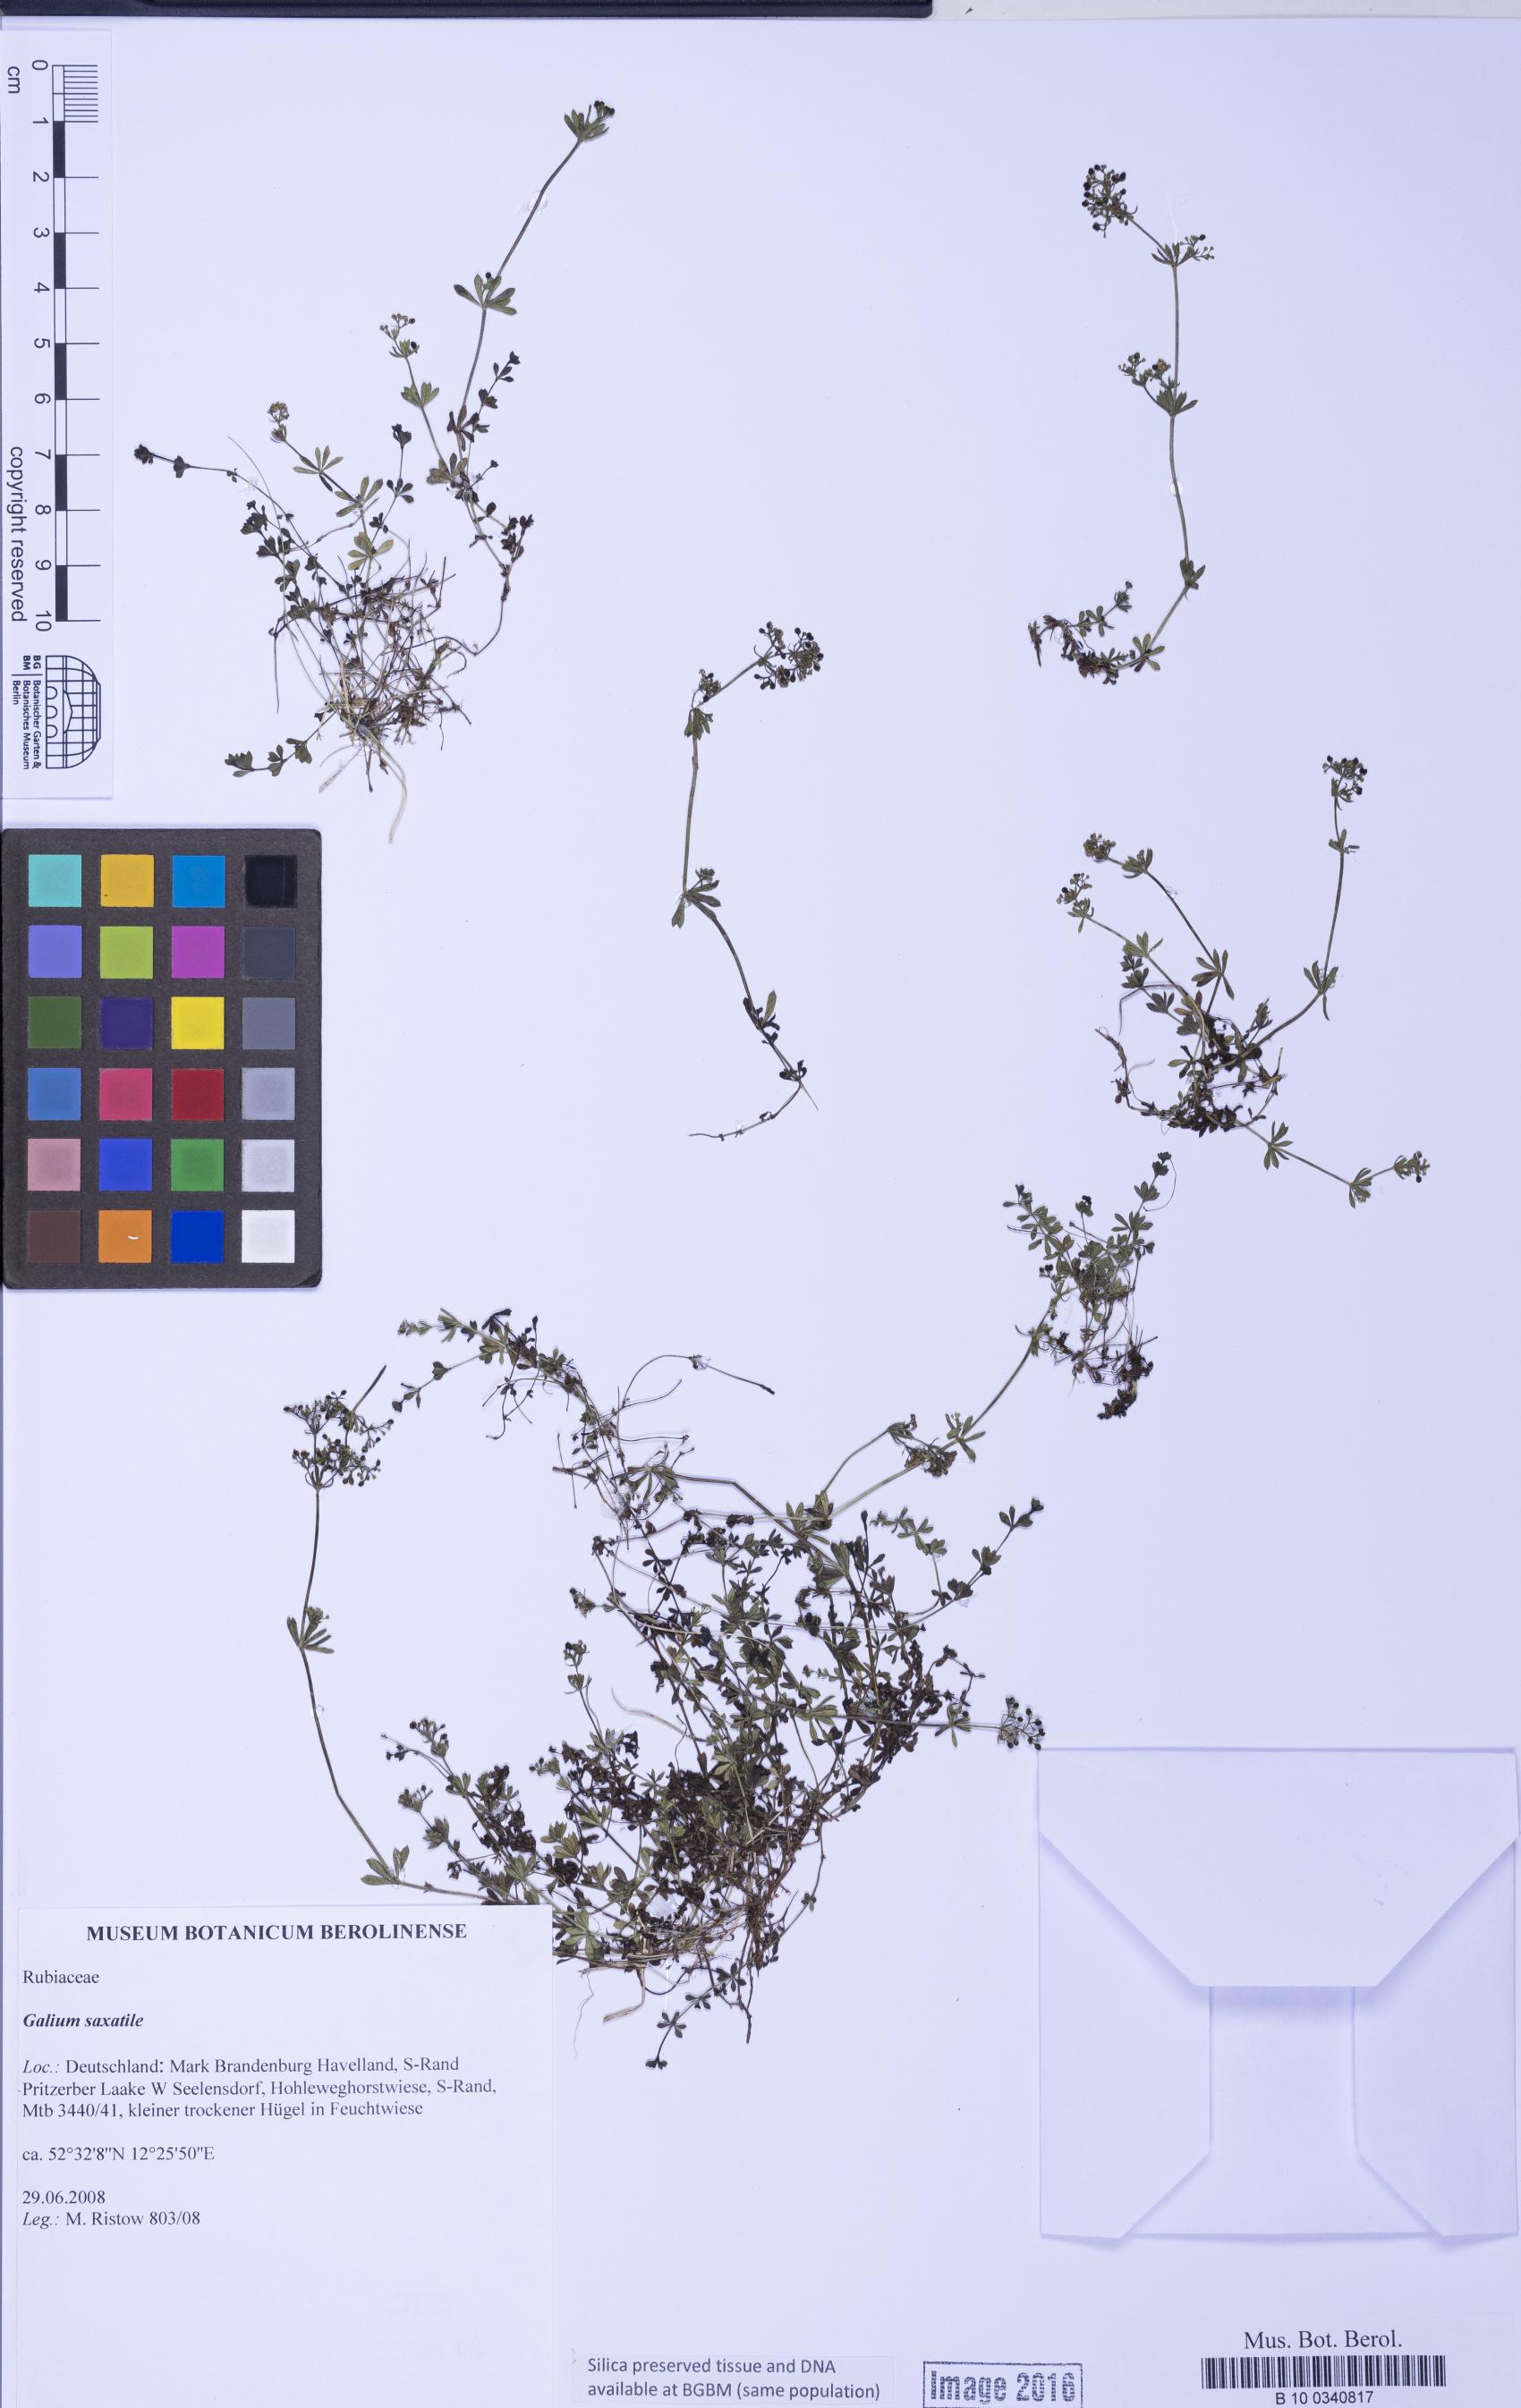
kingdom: Plantae
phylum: Tracheophyta
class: Magnoliopsida
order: Gentianales
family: Rubiaceae
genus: Galium
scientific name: Galium saxatile
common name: Heath bedstraw
